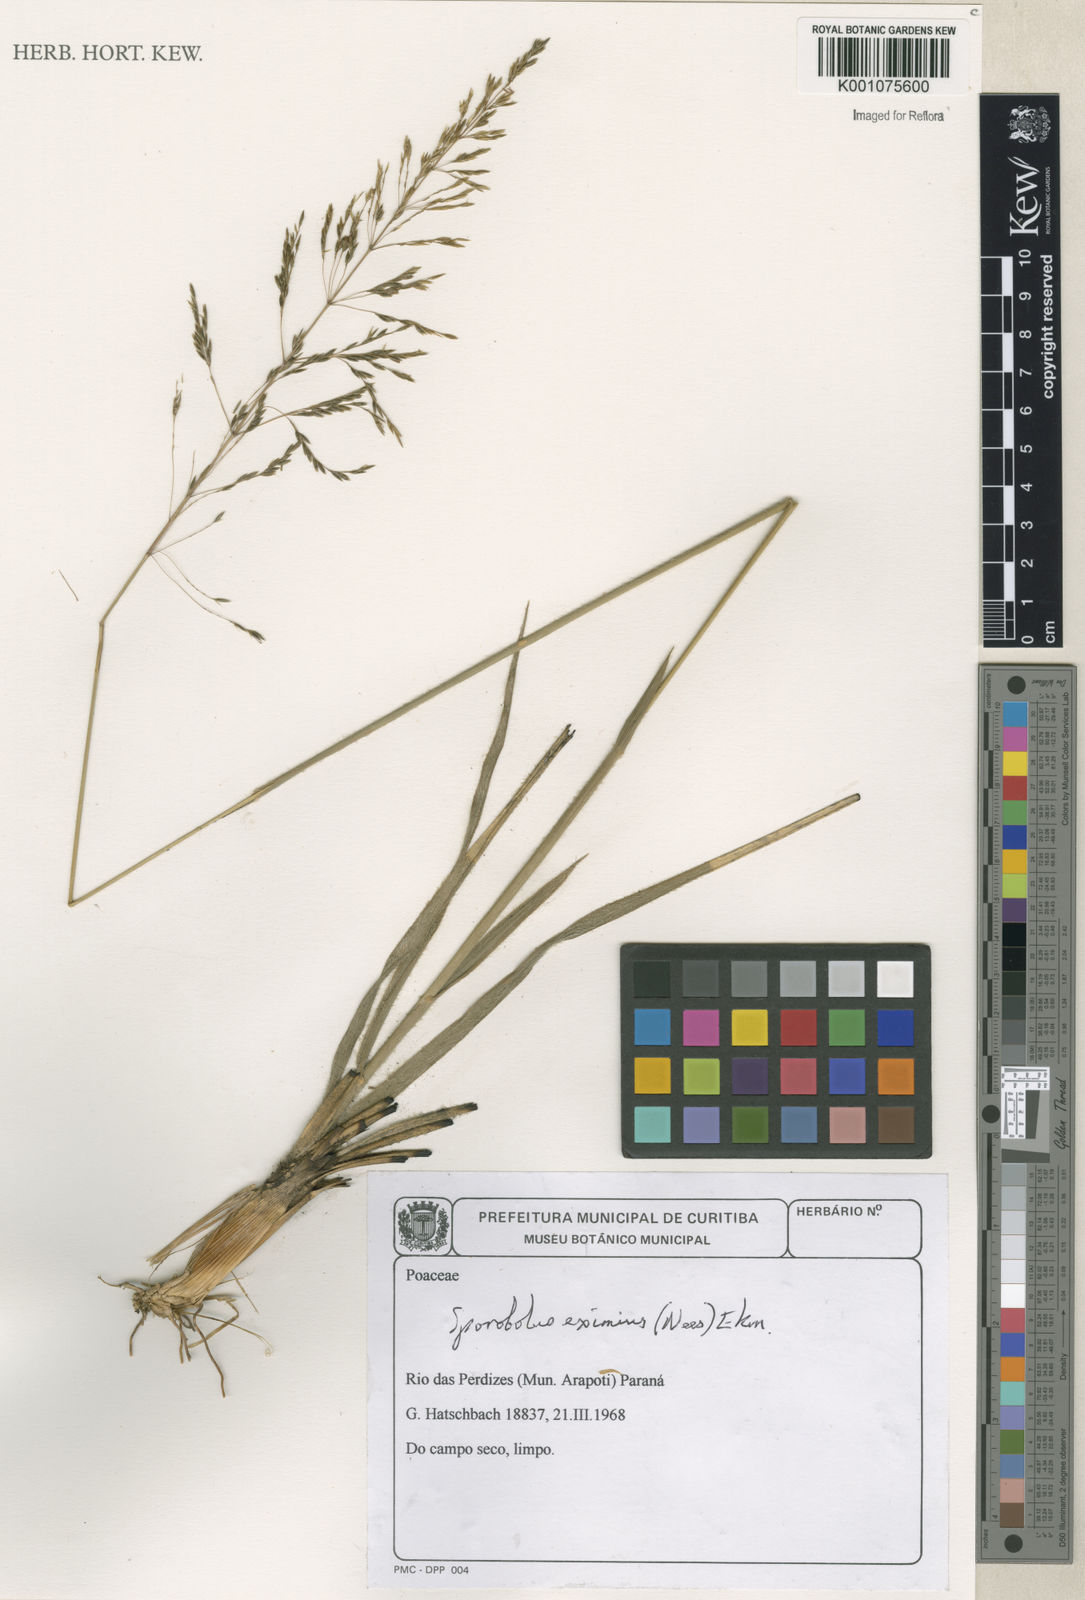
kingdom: Plantae
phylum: Tracheophyta
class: Liliopsida
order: Poales
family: Poaceae
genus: Sporobolus
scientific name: Sporobolus eximius
